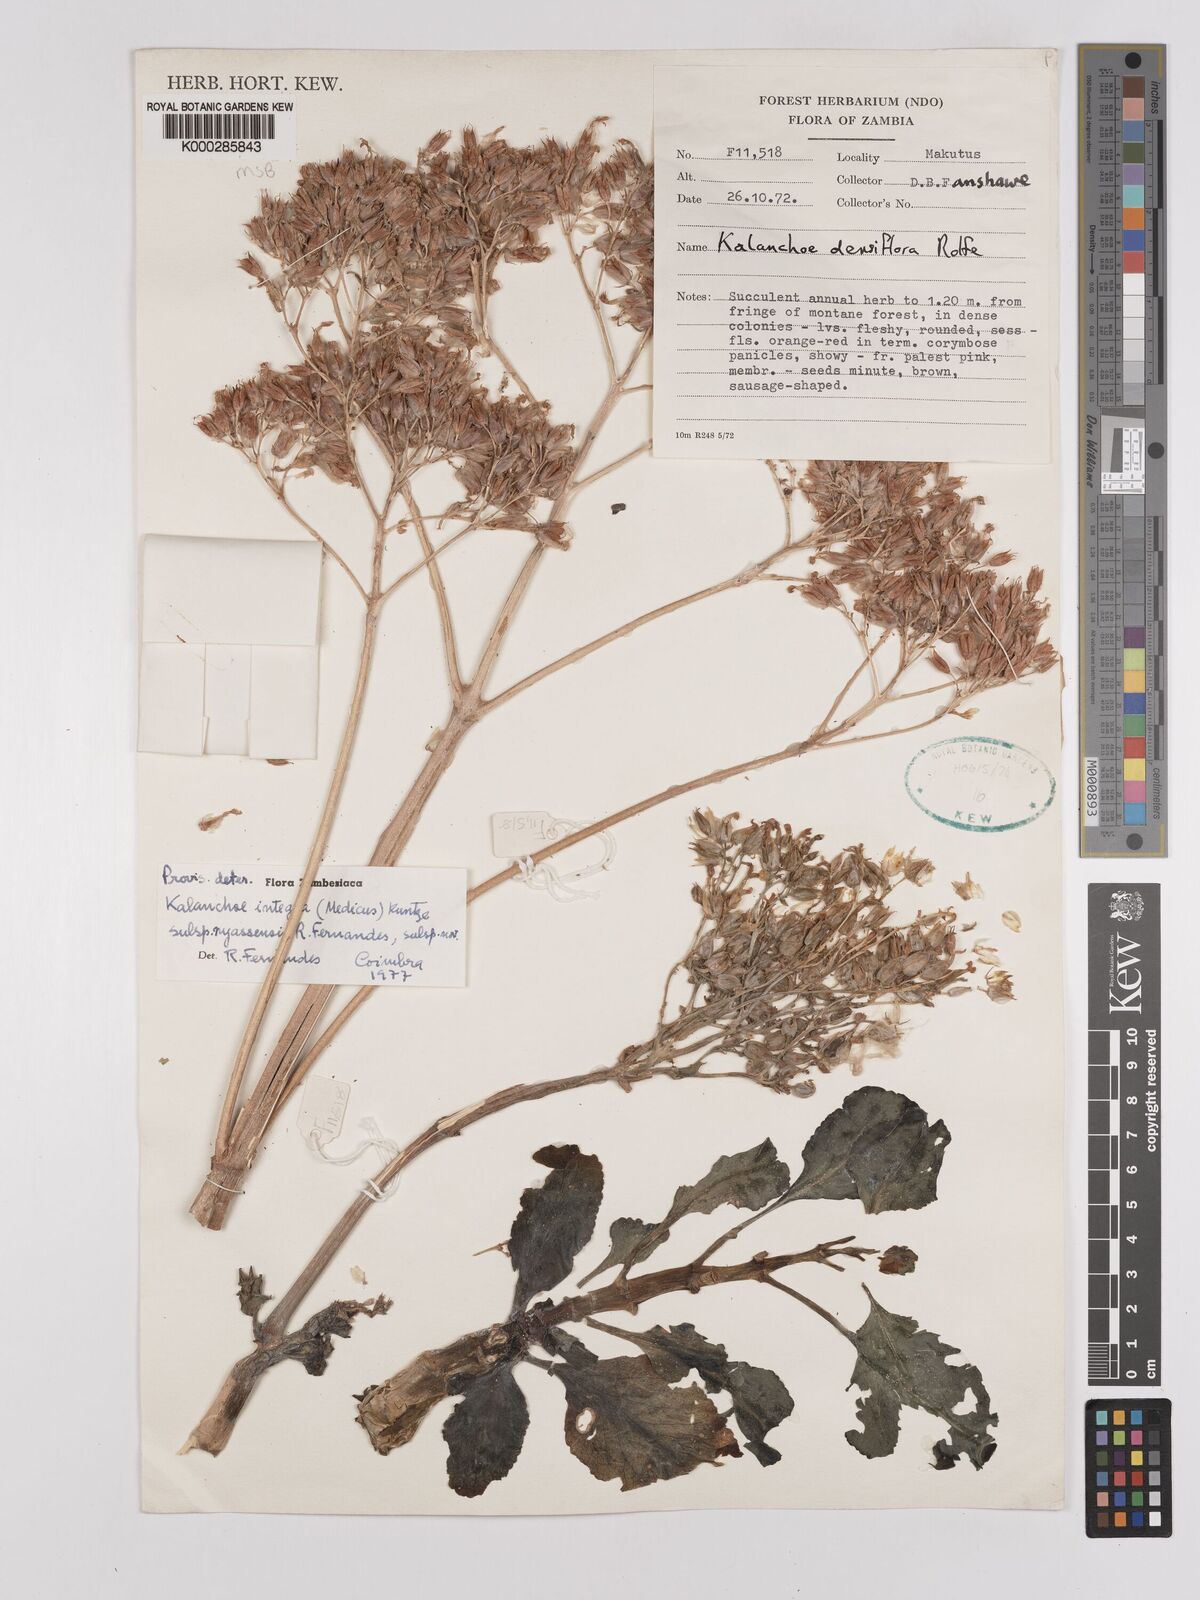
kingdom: Plantae
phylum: Tracheophyta
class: Magnoliopsida
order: Saxifragales
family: Crassulaceae
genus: Kalanchoe
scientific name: Kalanchoe crenata
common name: Neverdie
